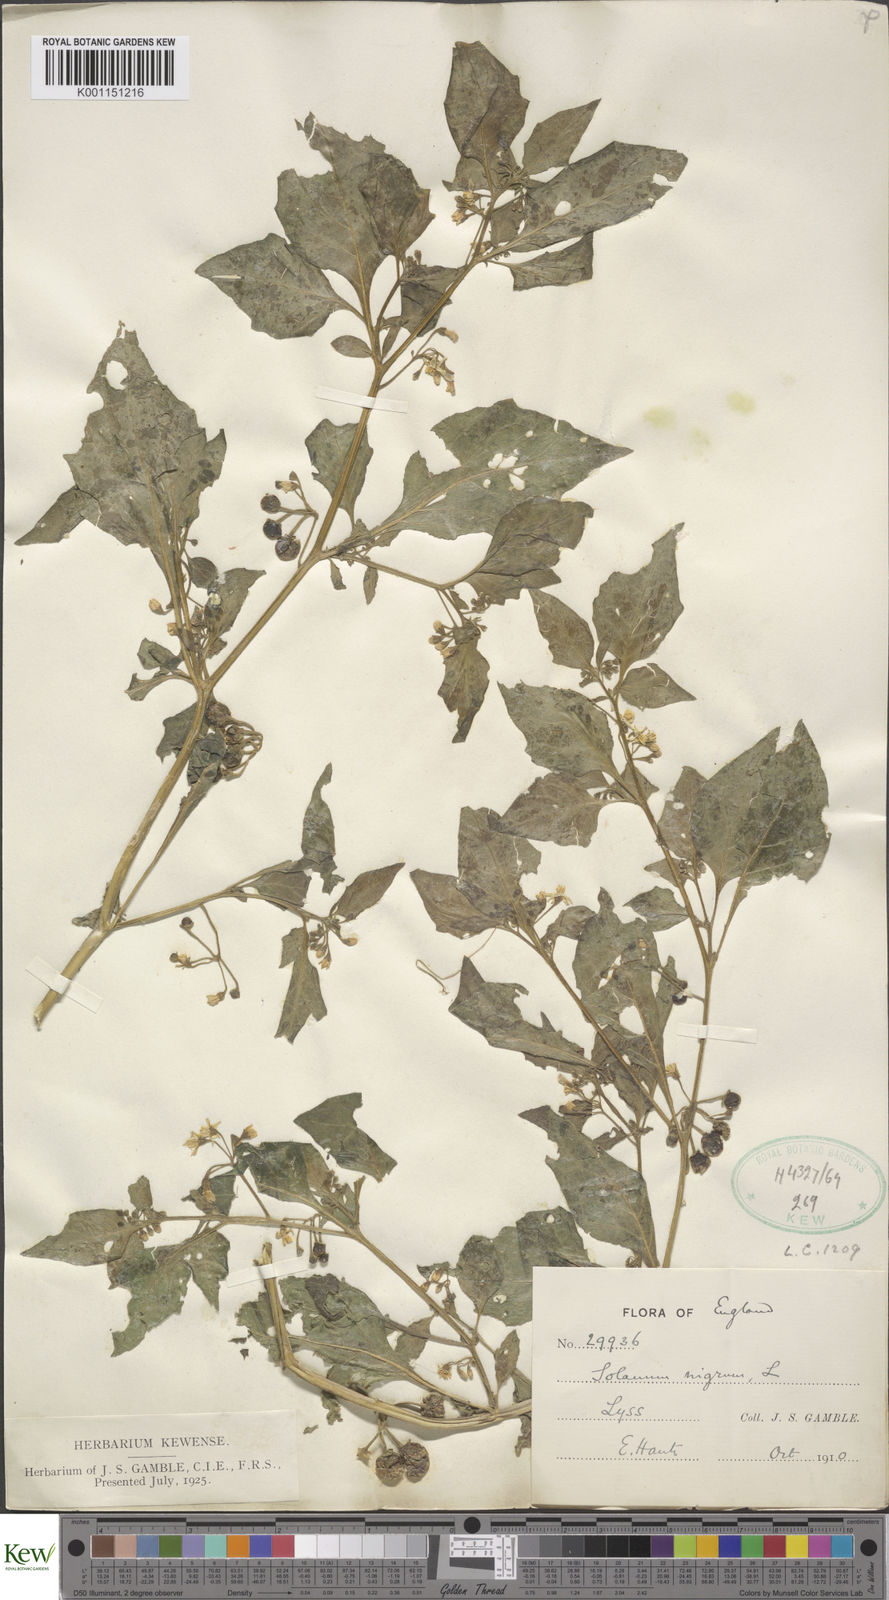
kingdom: Plantae
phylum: Tracheophyta
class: Magnoliopsida
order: Solanales
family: Solanaceae
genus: Solanum
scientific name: Solanum nigrum
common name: Black nightshade
